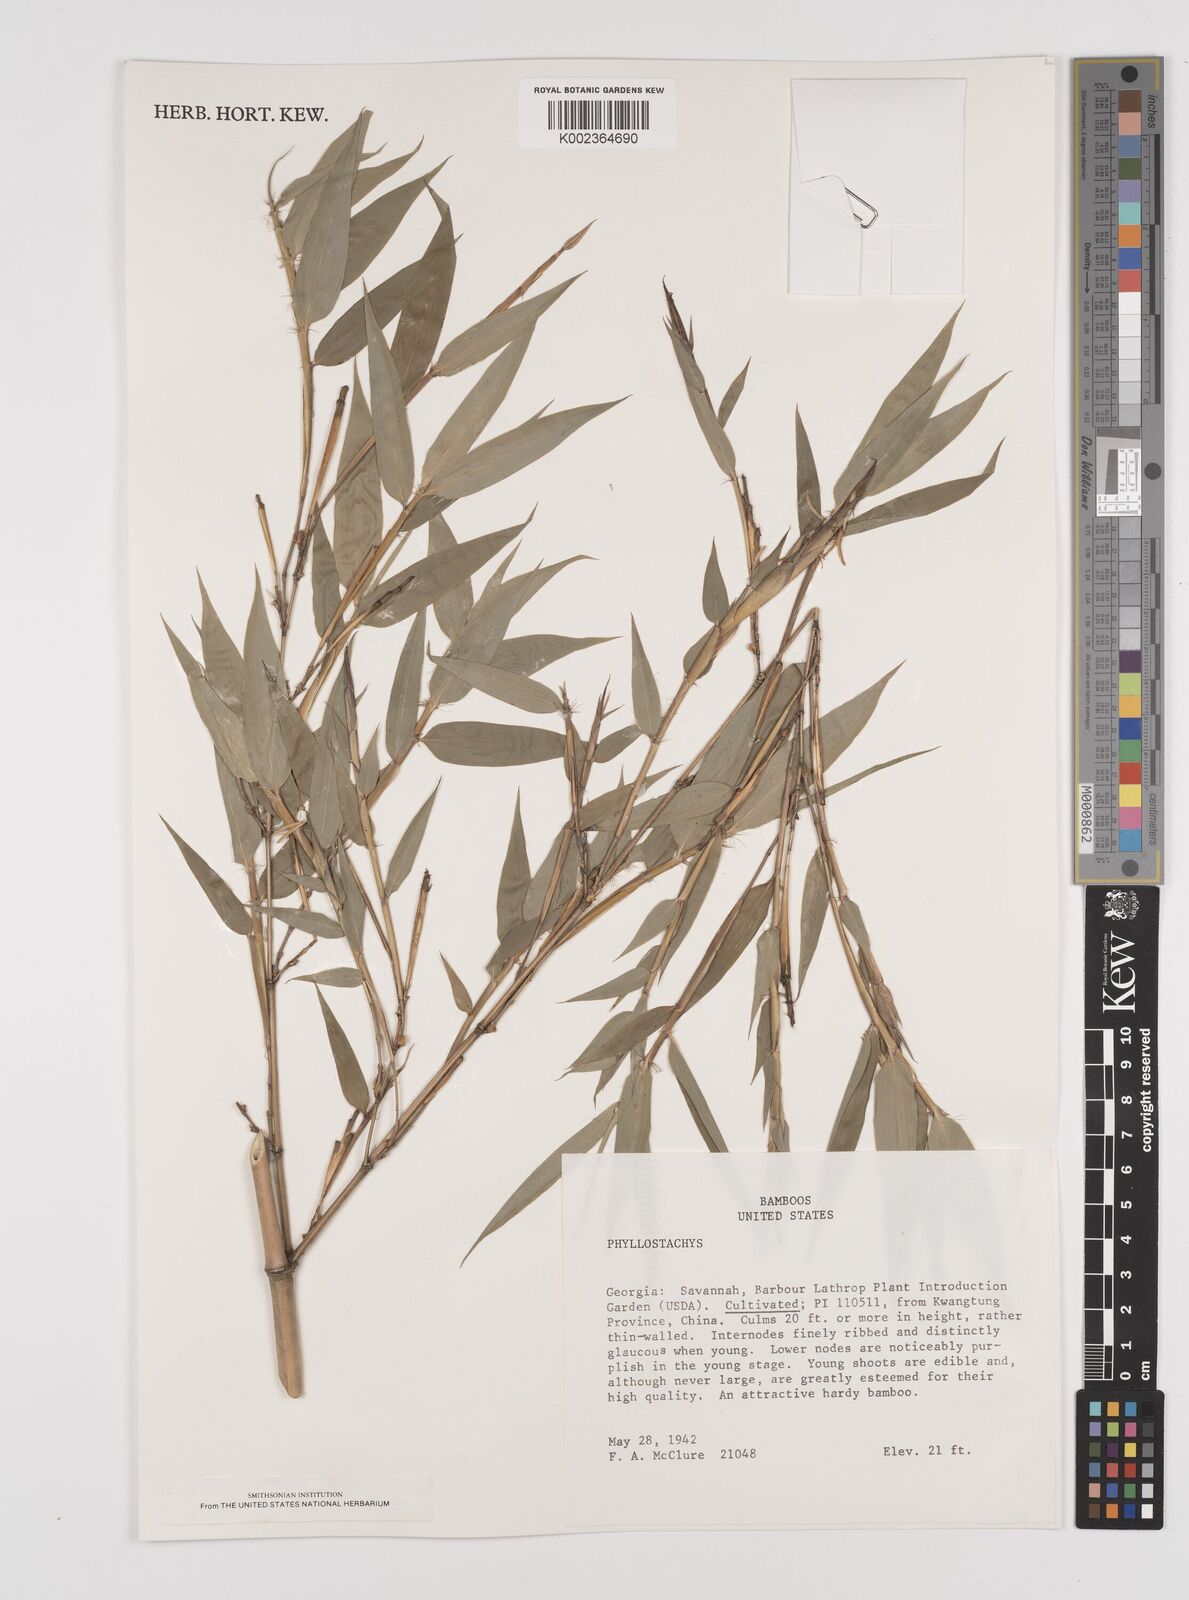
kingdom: Plantae
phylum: Tracheophyta
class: Liliopsida
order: Poales
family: Poaceae
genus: Phyllostachys
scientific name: Phyllostachys
